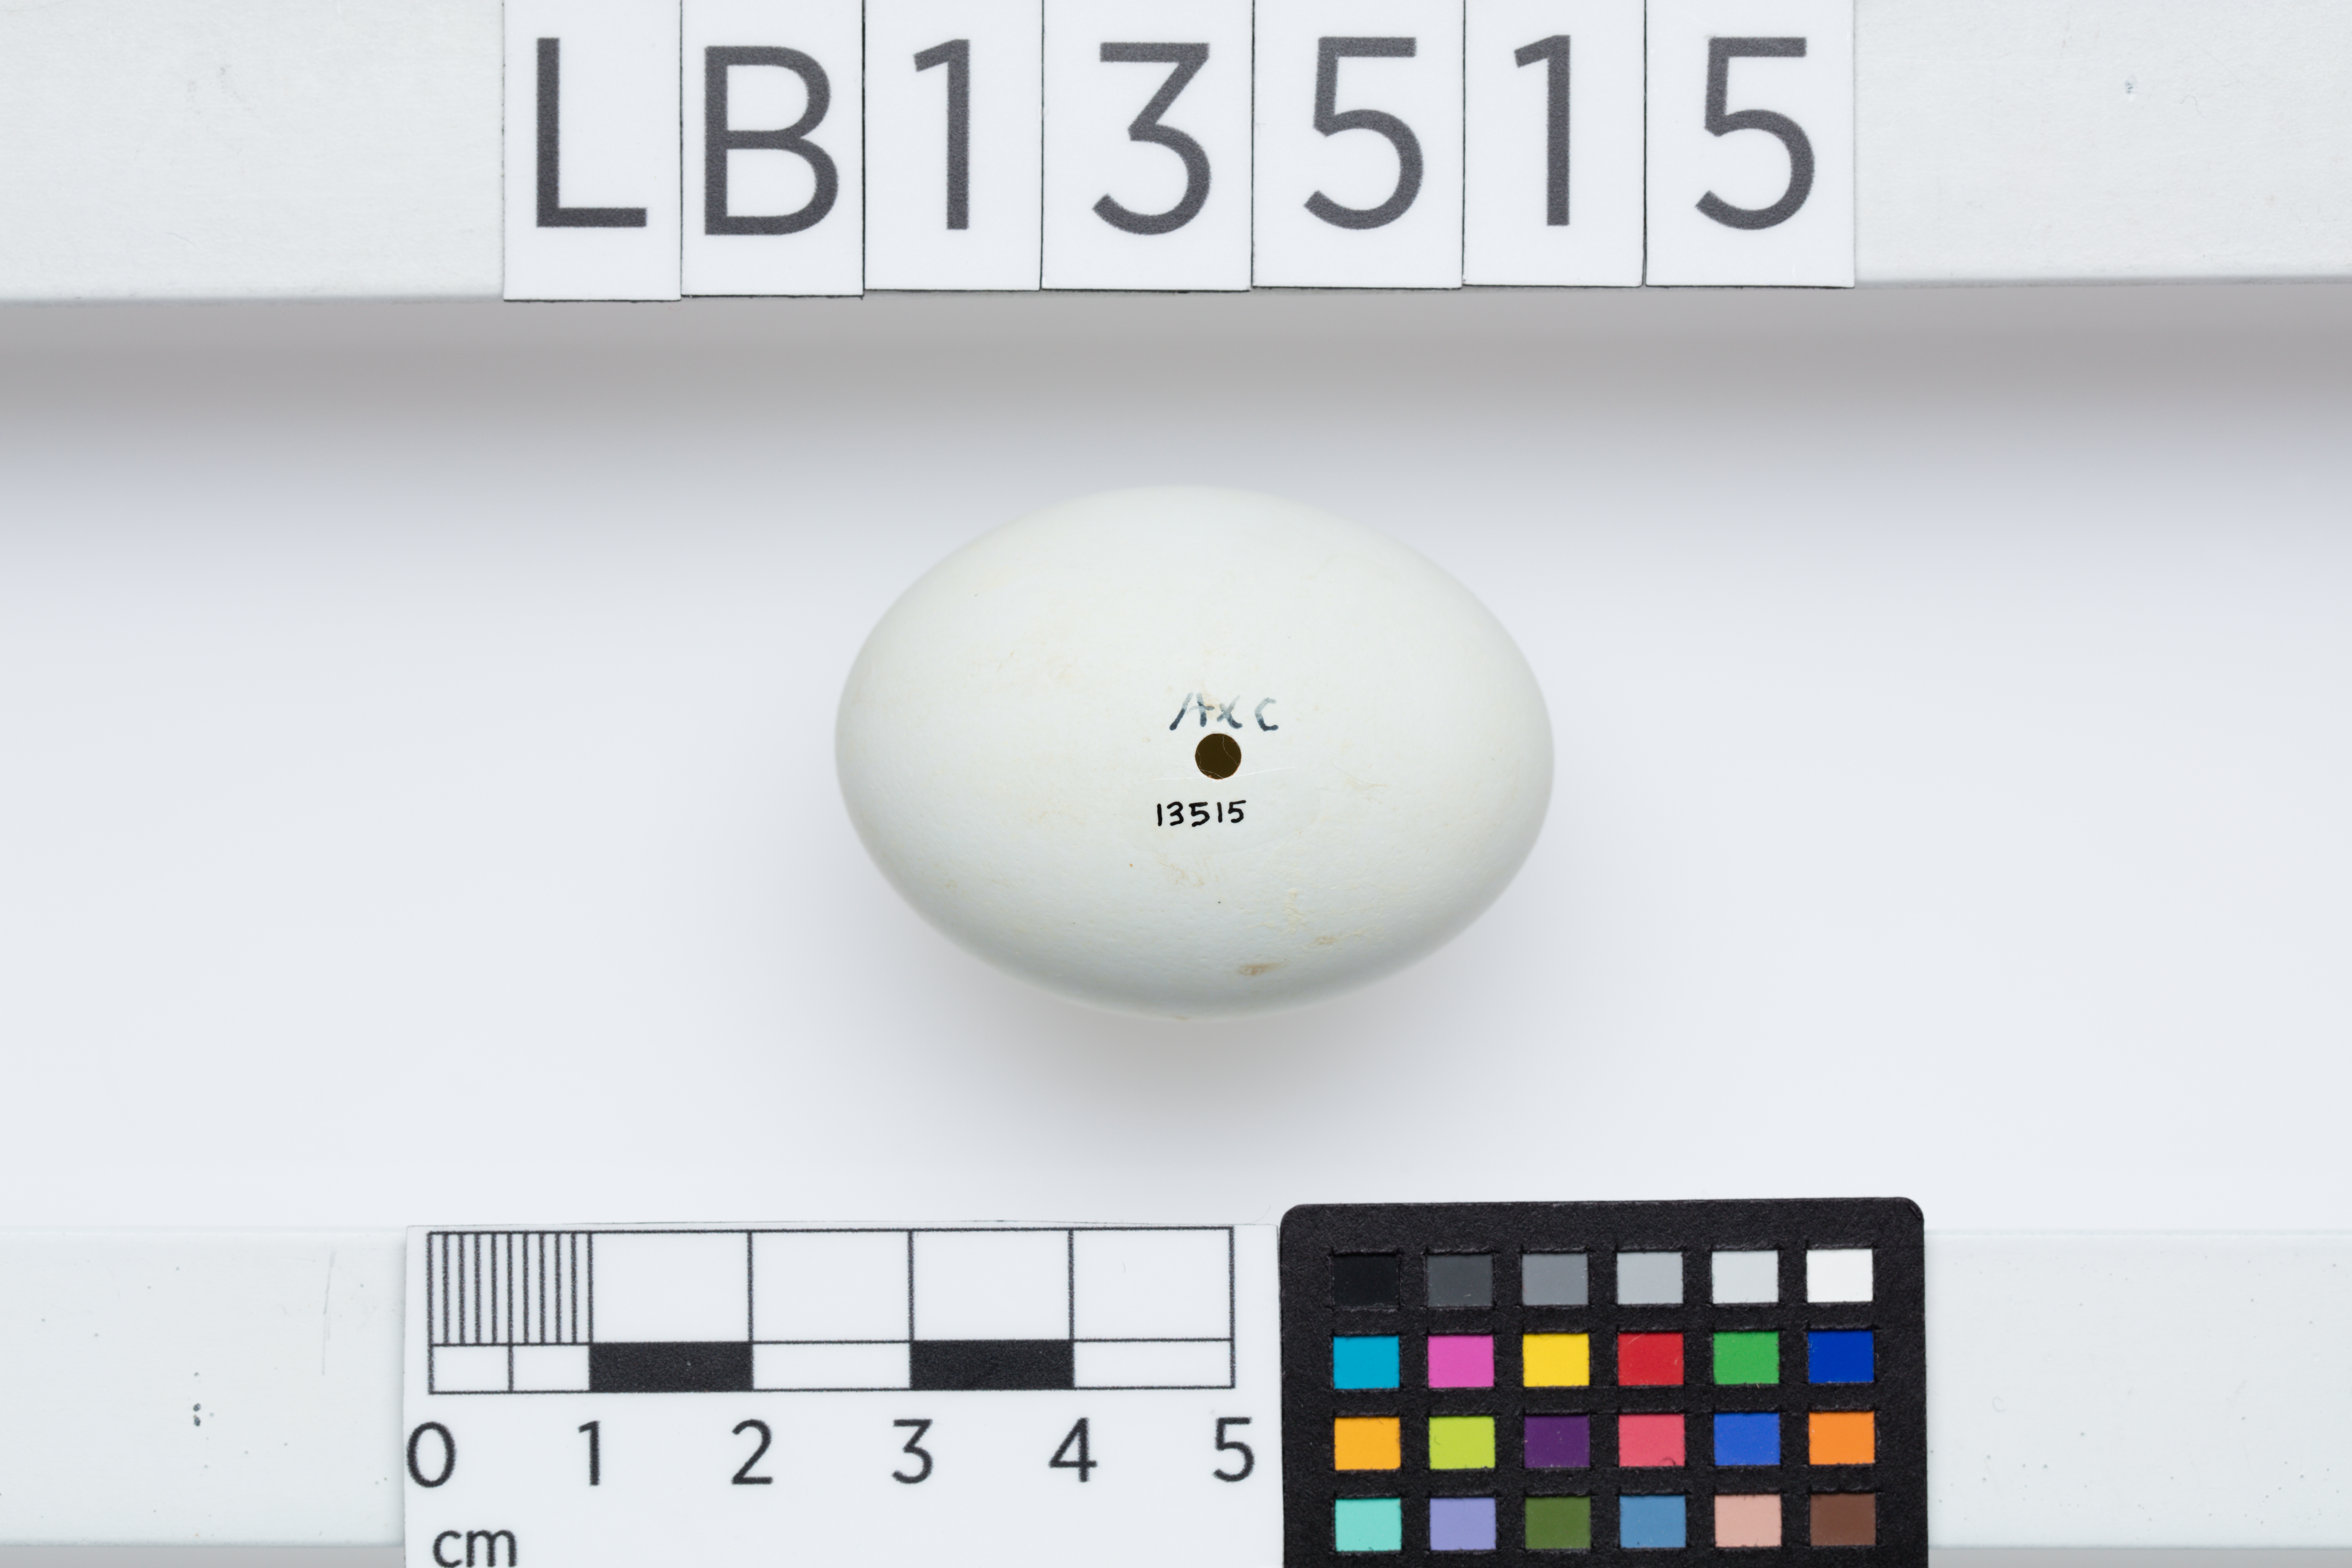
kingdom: Animalia
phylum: Chordata
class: Aves
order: Pelecaniformes
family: Ardeidae
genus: Egretta
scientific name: Egretta sacra
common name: Pacific reef heron
